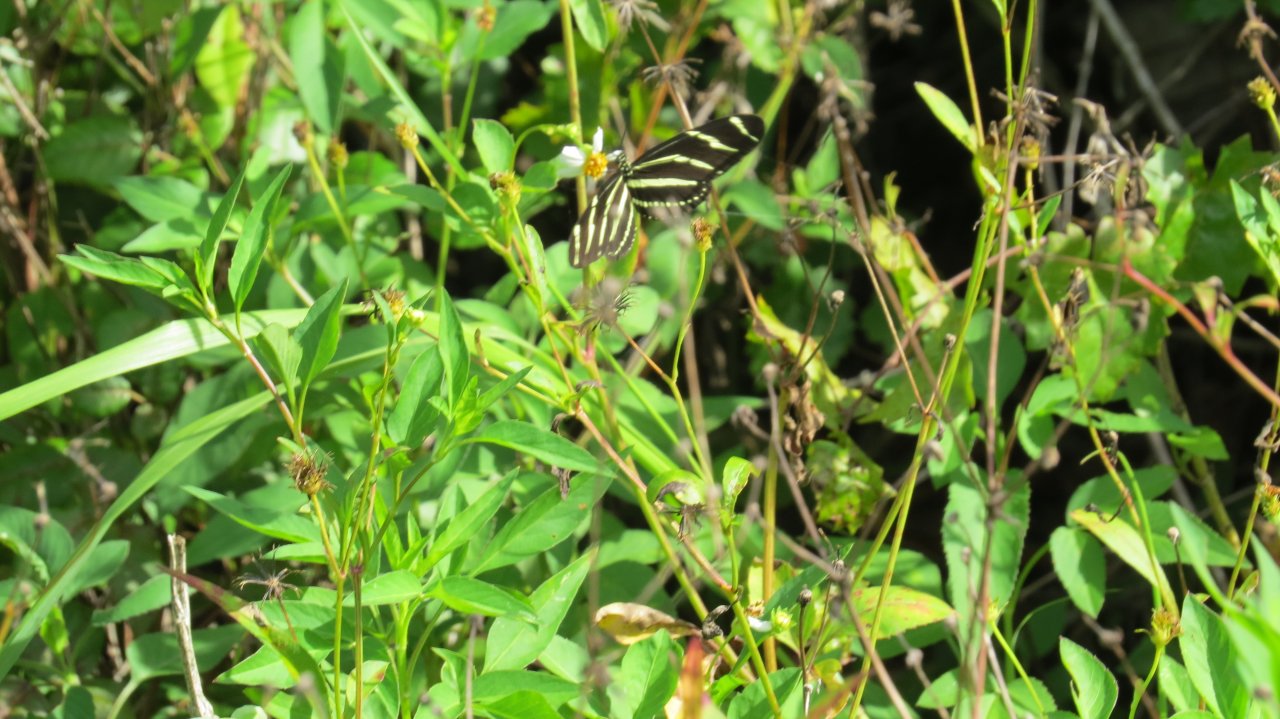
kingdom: Animalia
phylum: Arthropoda
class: Insecta
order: Lepidoptera
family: Nymphalidae
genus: Heliconius
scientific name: Heliconius charithonia
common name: Zebra Longwing
